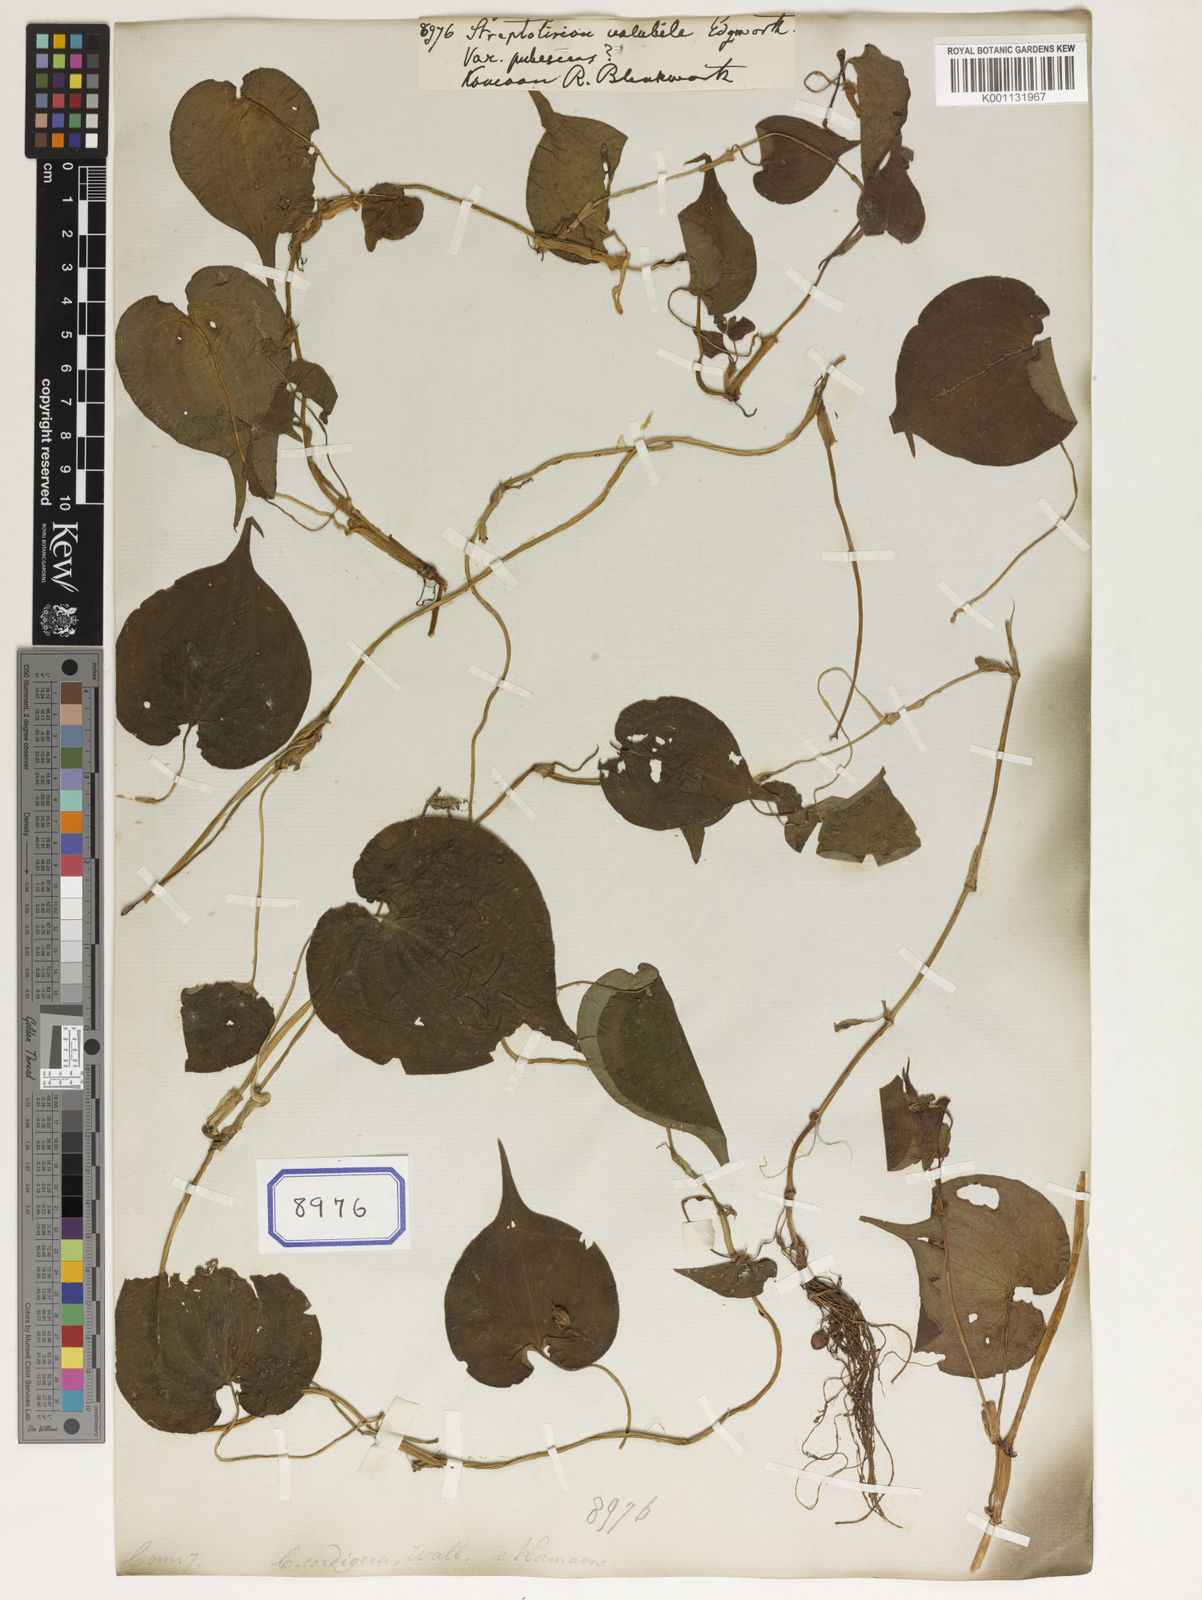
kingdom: Plantae
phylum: Tracheophyta
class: Liliopsida
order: Commelinales
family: Commelinaceae
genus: Streptolirion
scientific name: Streptolirion volubile
